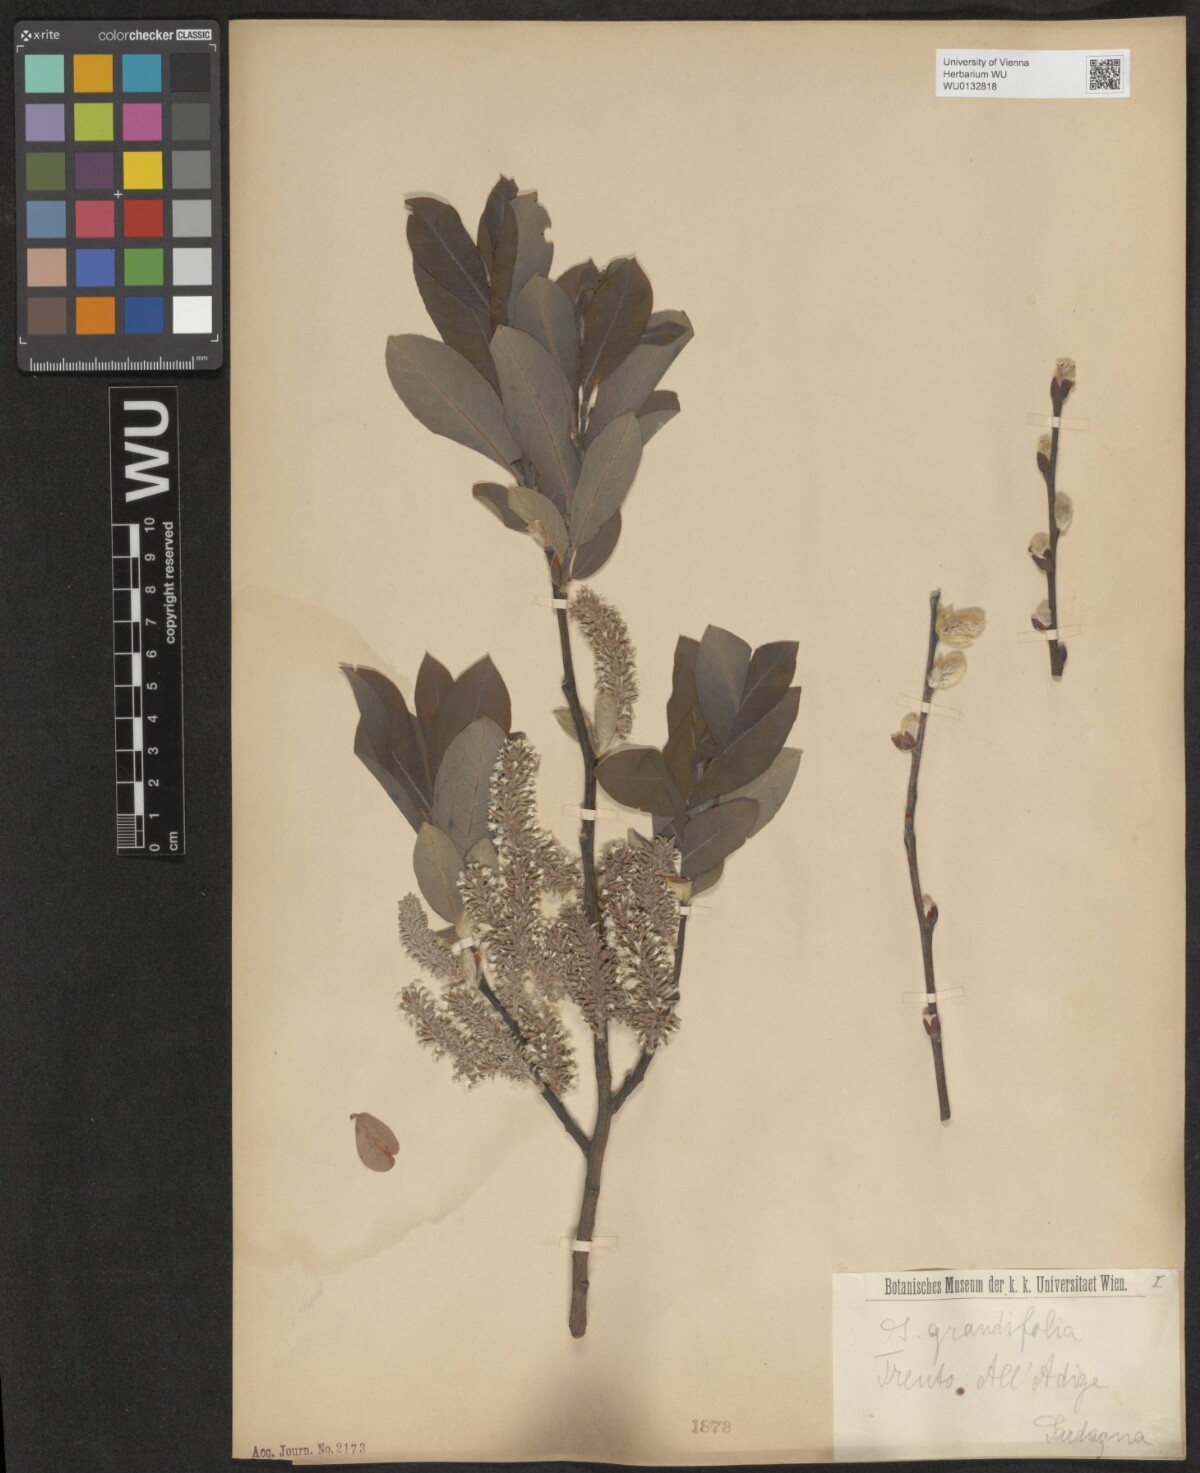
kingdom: Plantae
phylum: Tracheophyta
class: Magnoliopsida
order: Malpighiales
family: Salicaceae
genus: Salix
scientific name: Salix appendiculata
